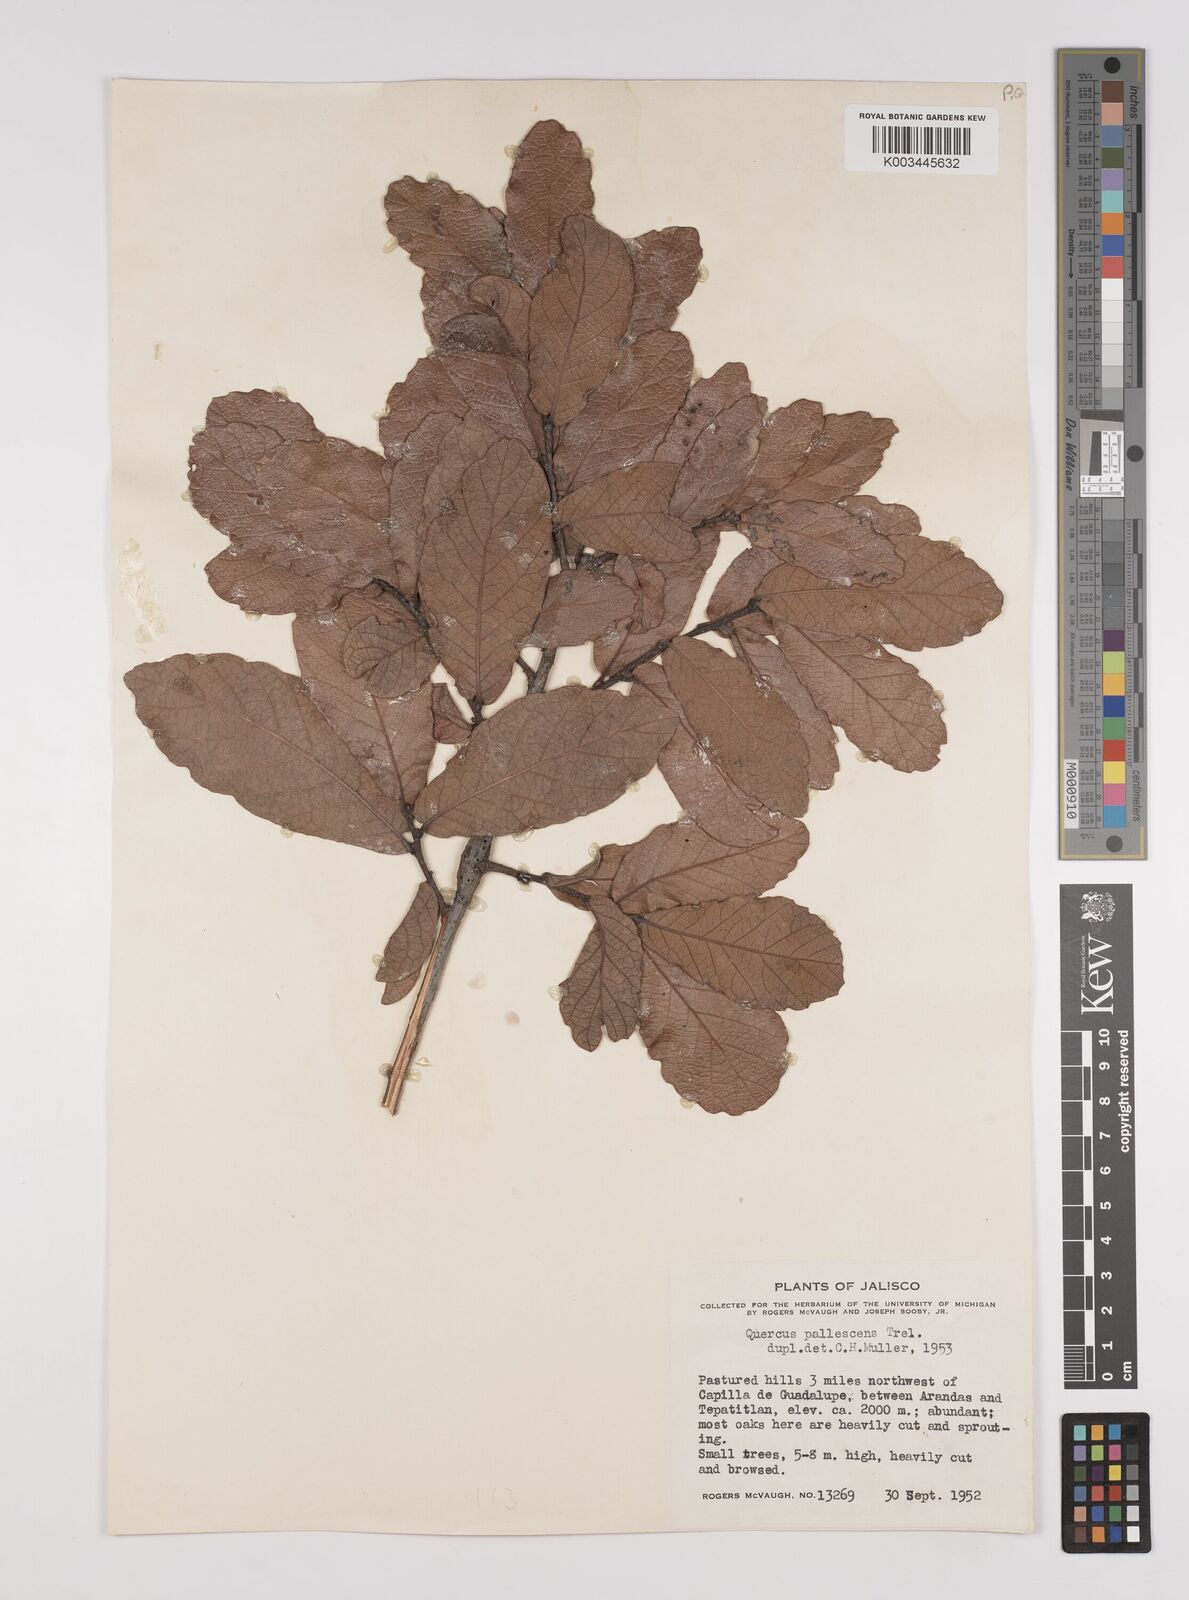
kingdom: Plantae
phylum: Tracheophyta
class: Magnoliopsida
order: Fagales
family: Fagaceae
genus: Quercus
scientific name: Quercus laeta
